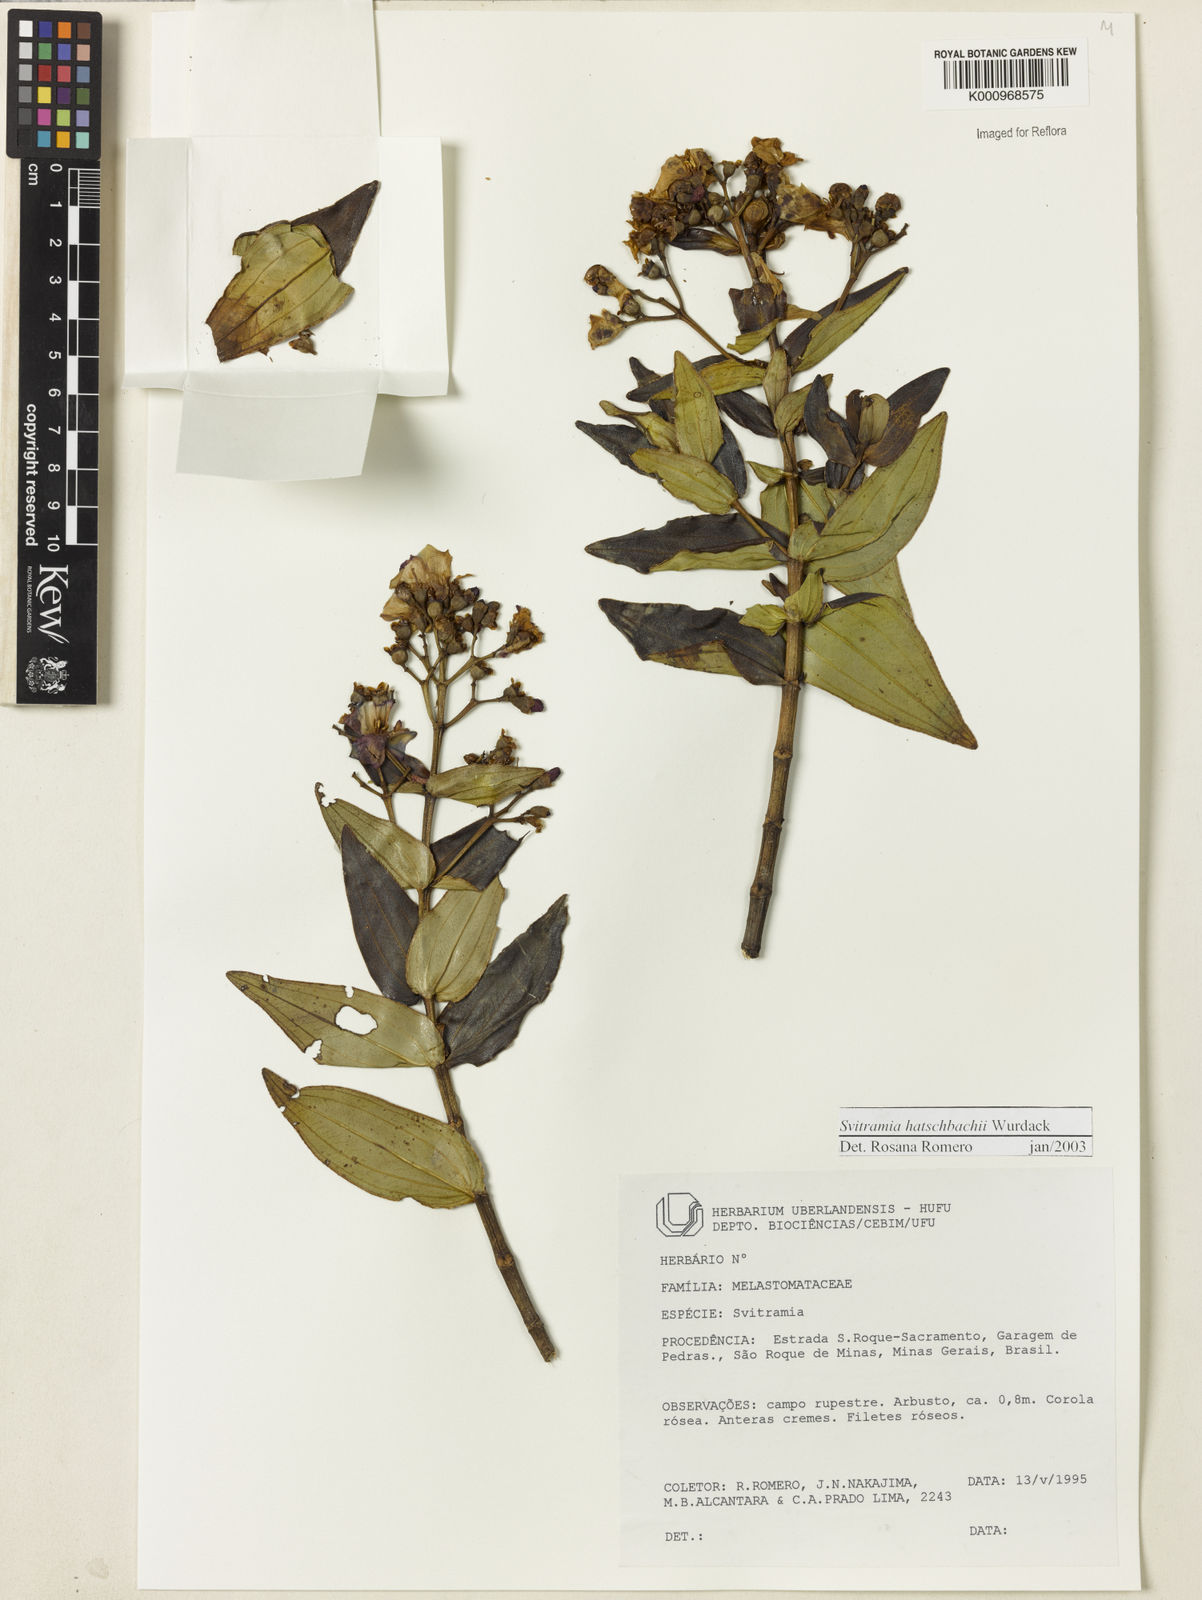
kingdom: Plantae
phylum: Tracheophyta
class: Magnoliopsida
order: Myrtales
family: Melastomataceae
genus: Pleroma
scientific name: Pleroma gertii
